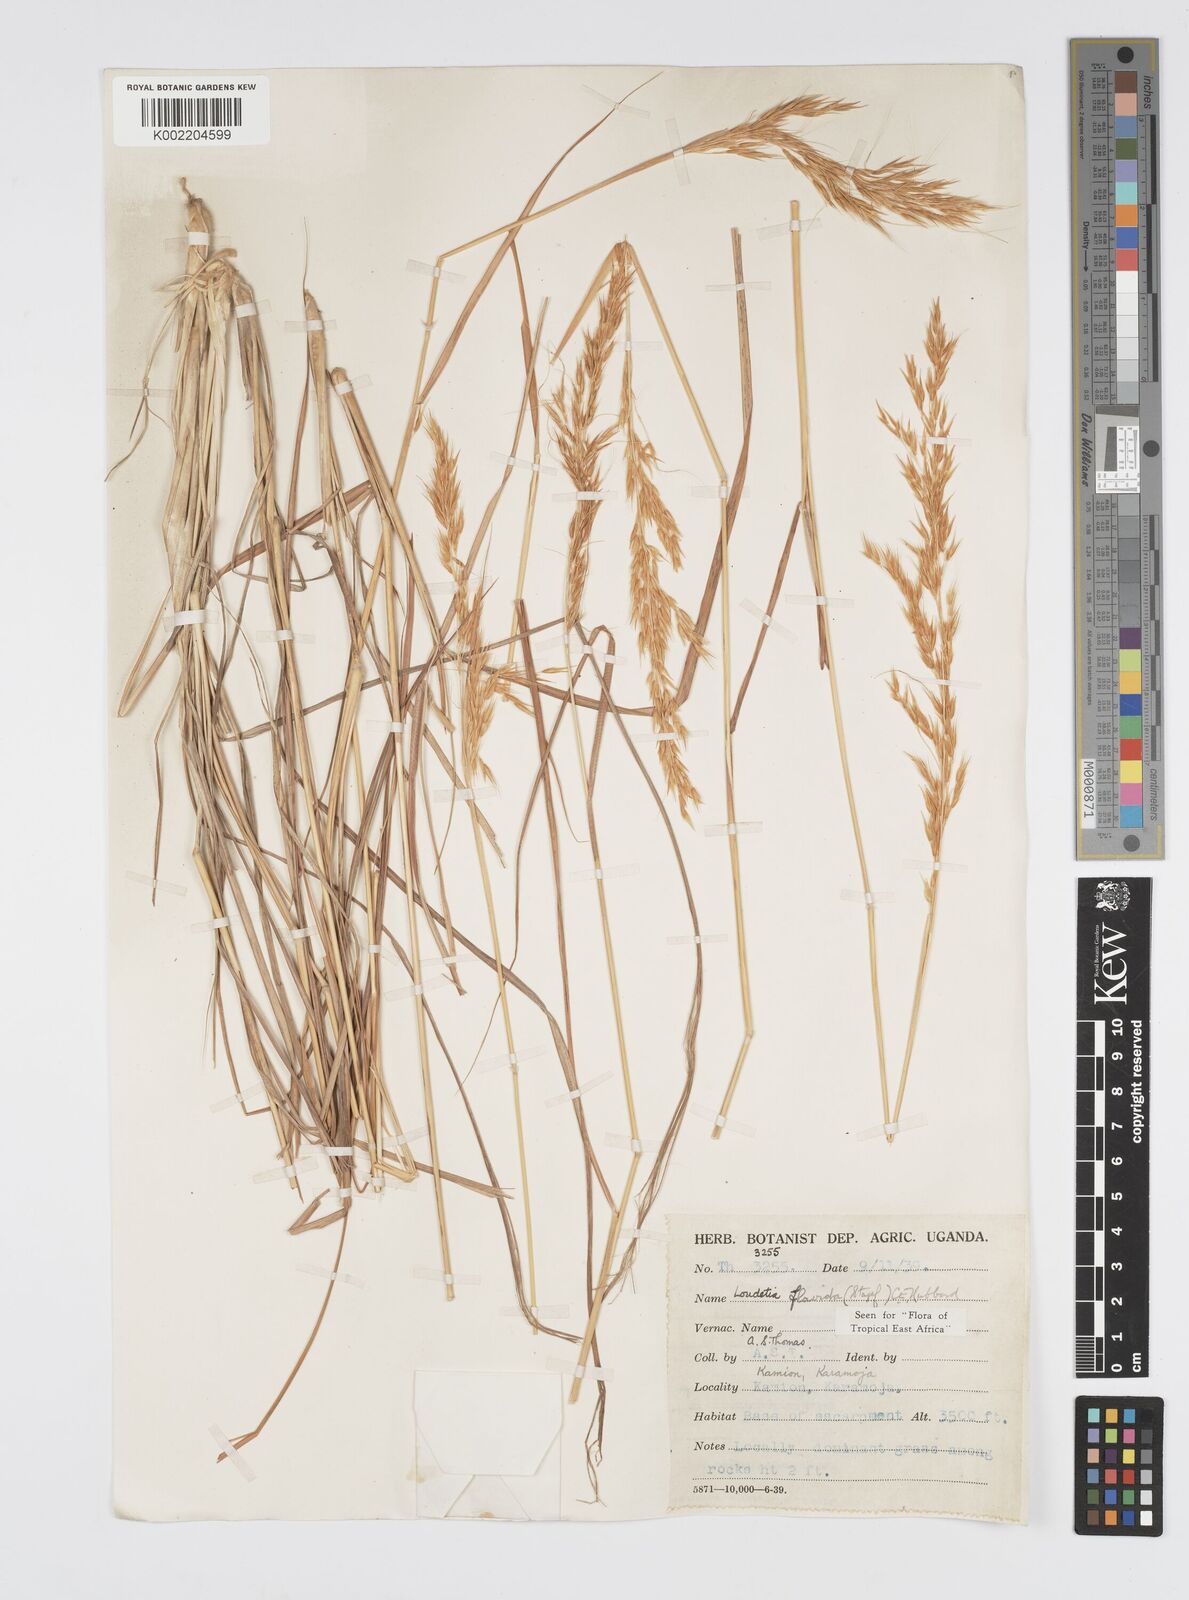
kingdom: Plantae
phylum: Tracheophyta
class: Liliopsida
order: Poales
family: Poaceae
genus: Loudetia
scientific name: Loudetia flavida
